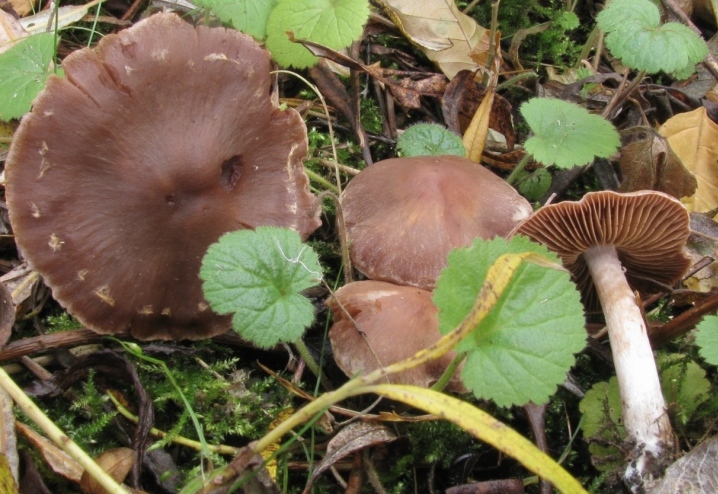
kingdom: Fungi
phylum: Basidiomycota
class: Agaricomycetes
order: Agaricales
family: Cortinariaceae
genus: Cortinarius
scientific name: Cortinarius saturninus
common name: brunviolet slørhat
